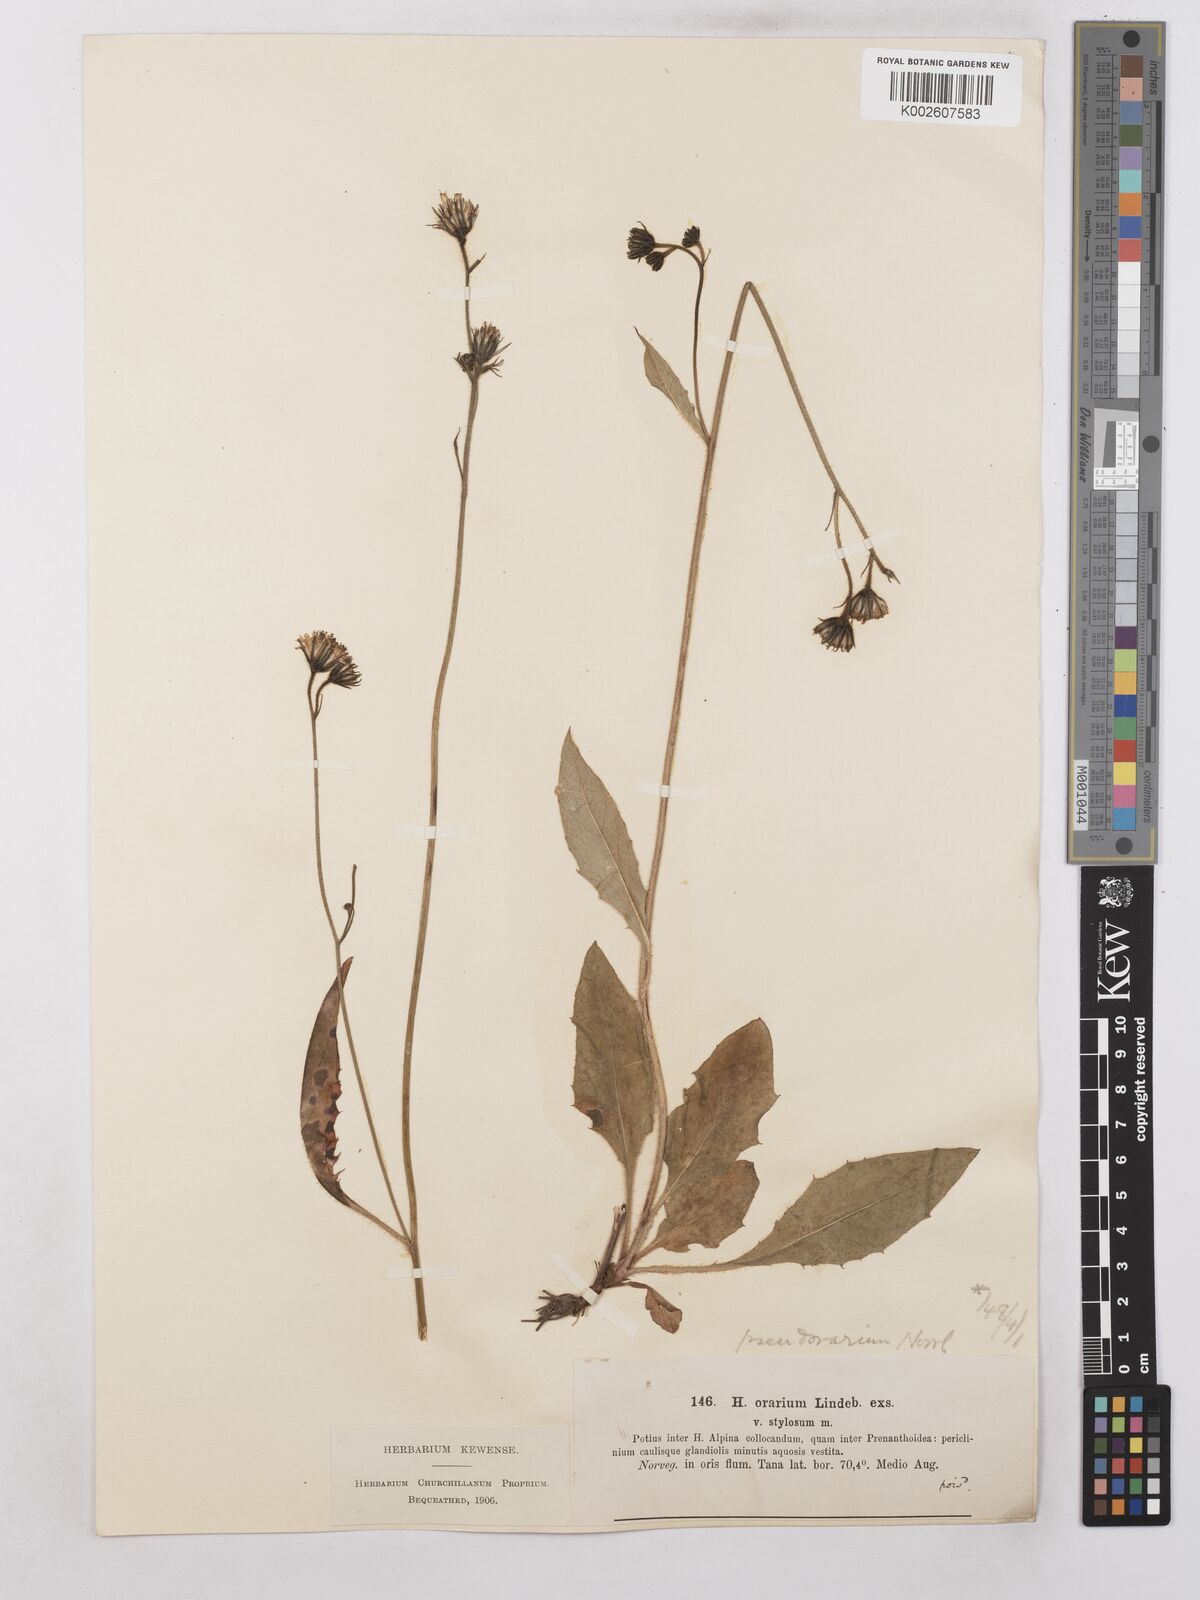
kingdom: Plantae
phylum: Tracheophyta
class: Magnoliopsida
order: Asterales
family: Asteraceae
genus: Hieracium
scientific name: Hieracium subramosum
